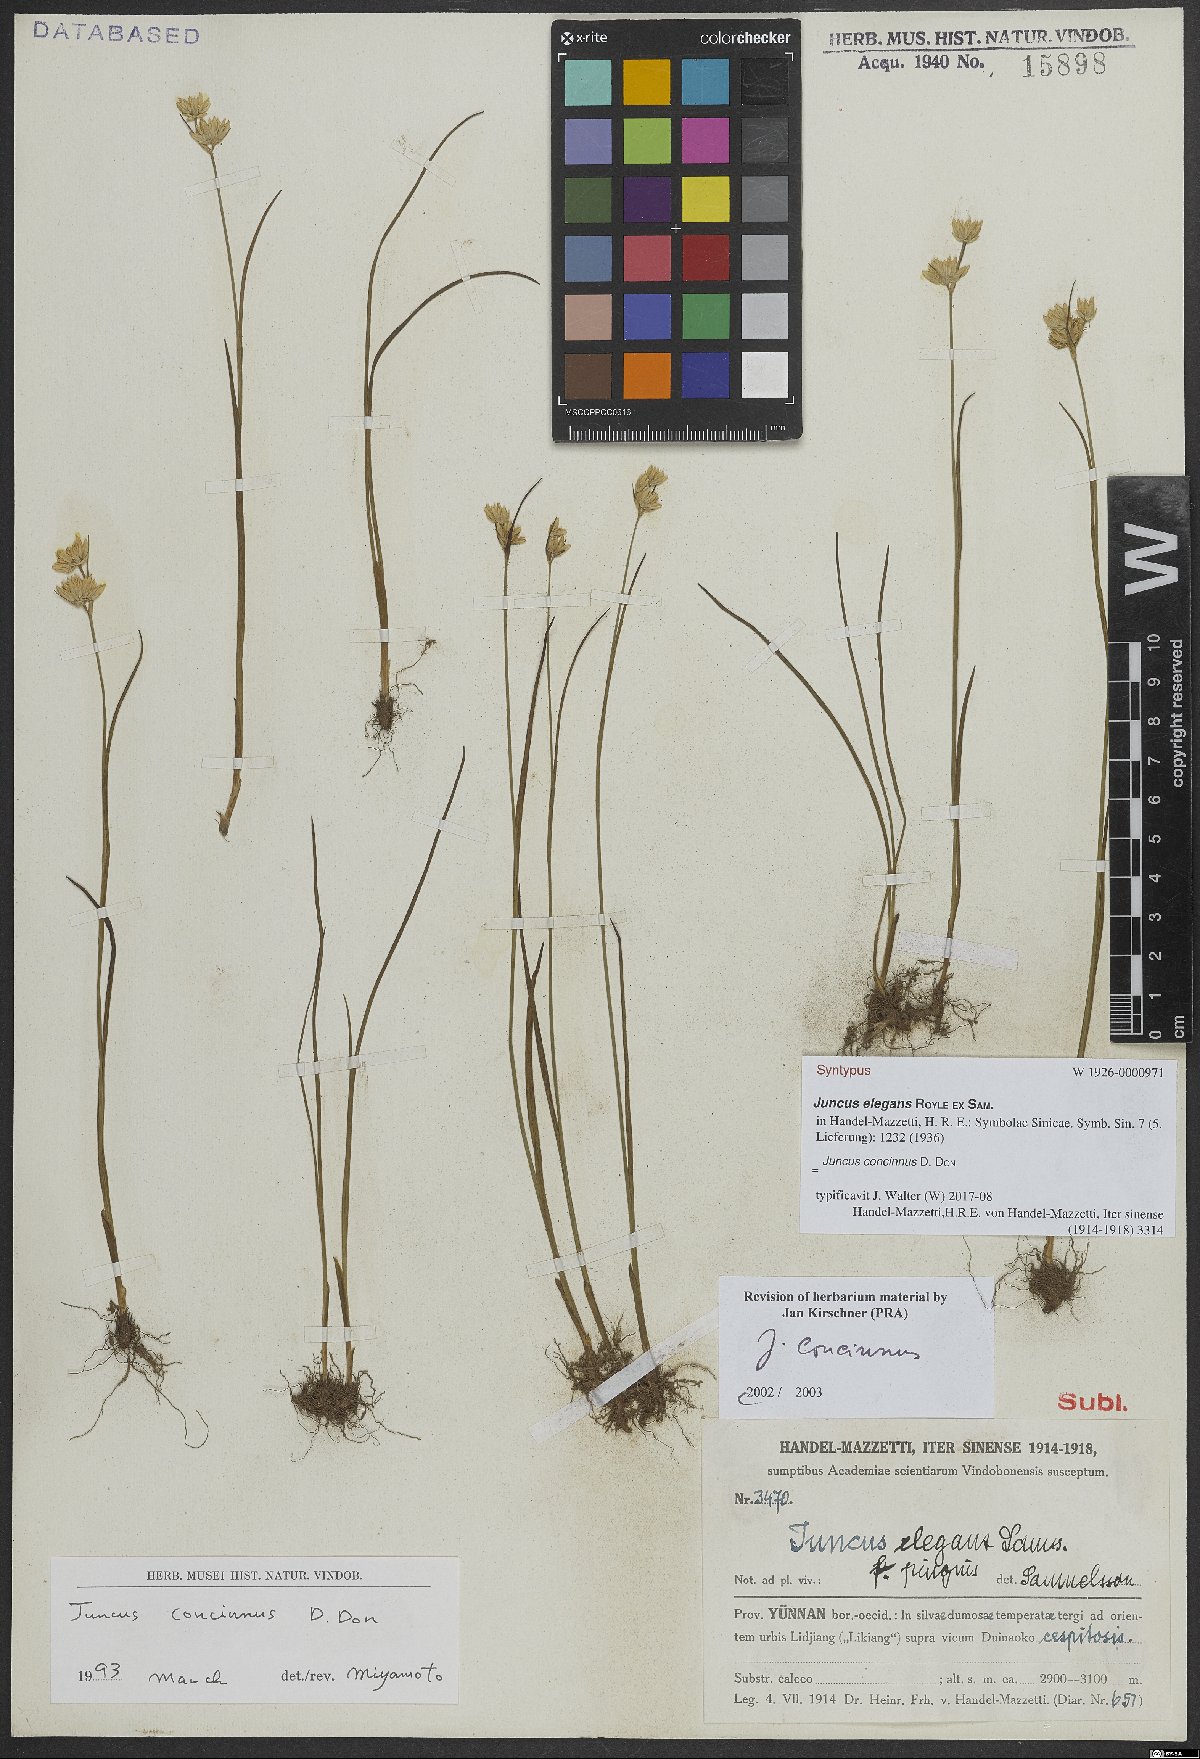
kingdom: Plantae
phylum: Tracheophyta
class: Liliopsida
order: Poales
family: Juncaceae
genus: Juncus
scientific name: Juncus concinnus
